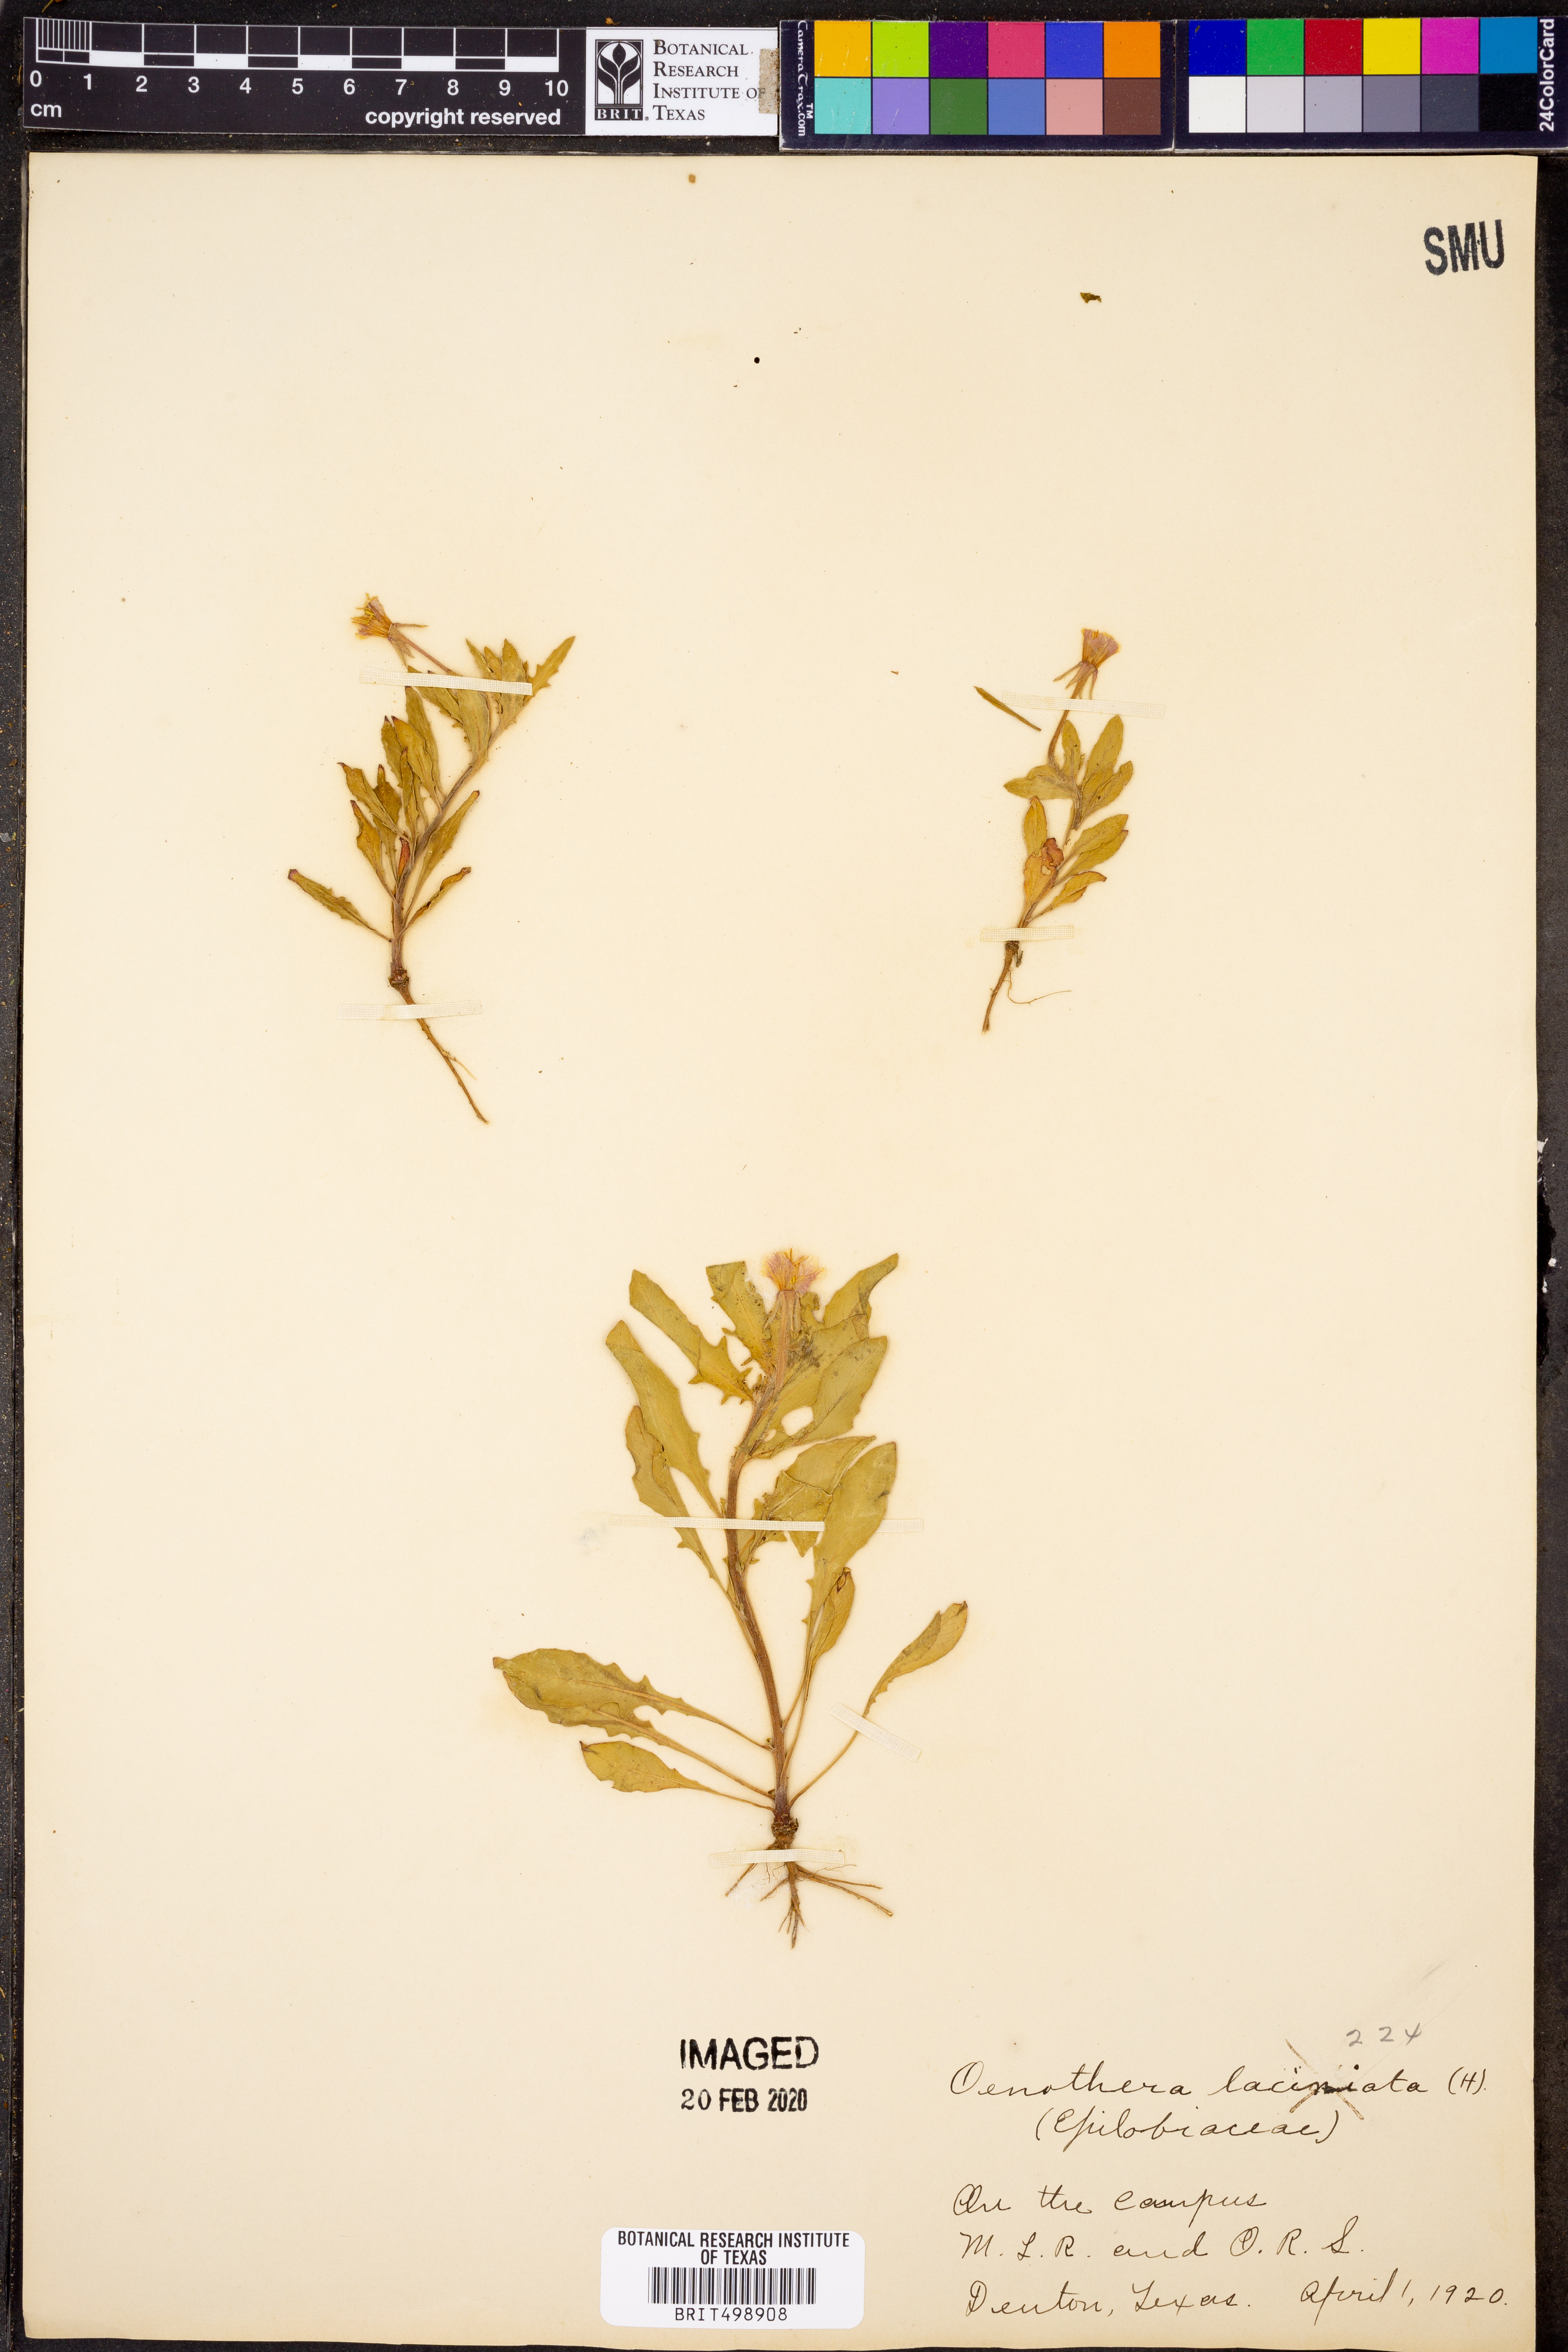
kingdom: Plantae
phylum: Tracheophyta
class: Magnoliopsida
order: Myrtales
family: Onagraceae
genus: Oenothera
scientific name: Oenothera laciniata
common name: Cut-leaved evening-primrose
